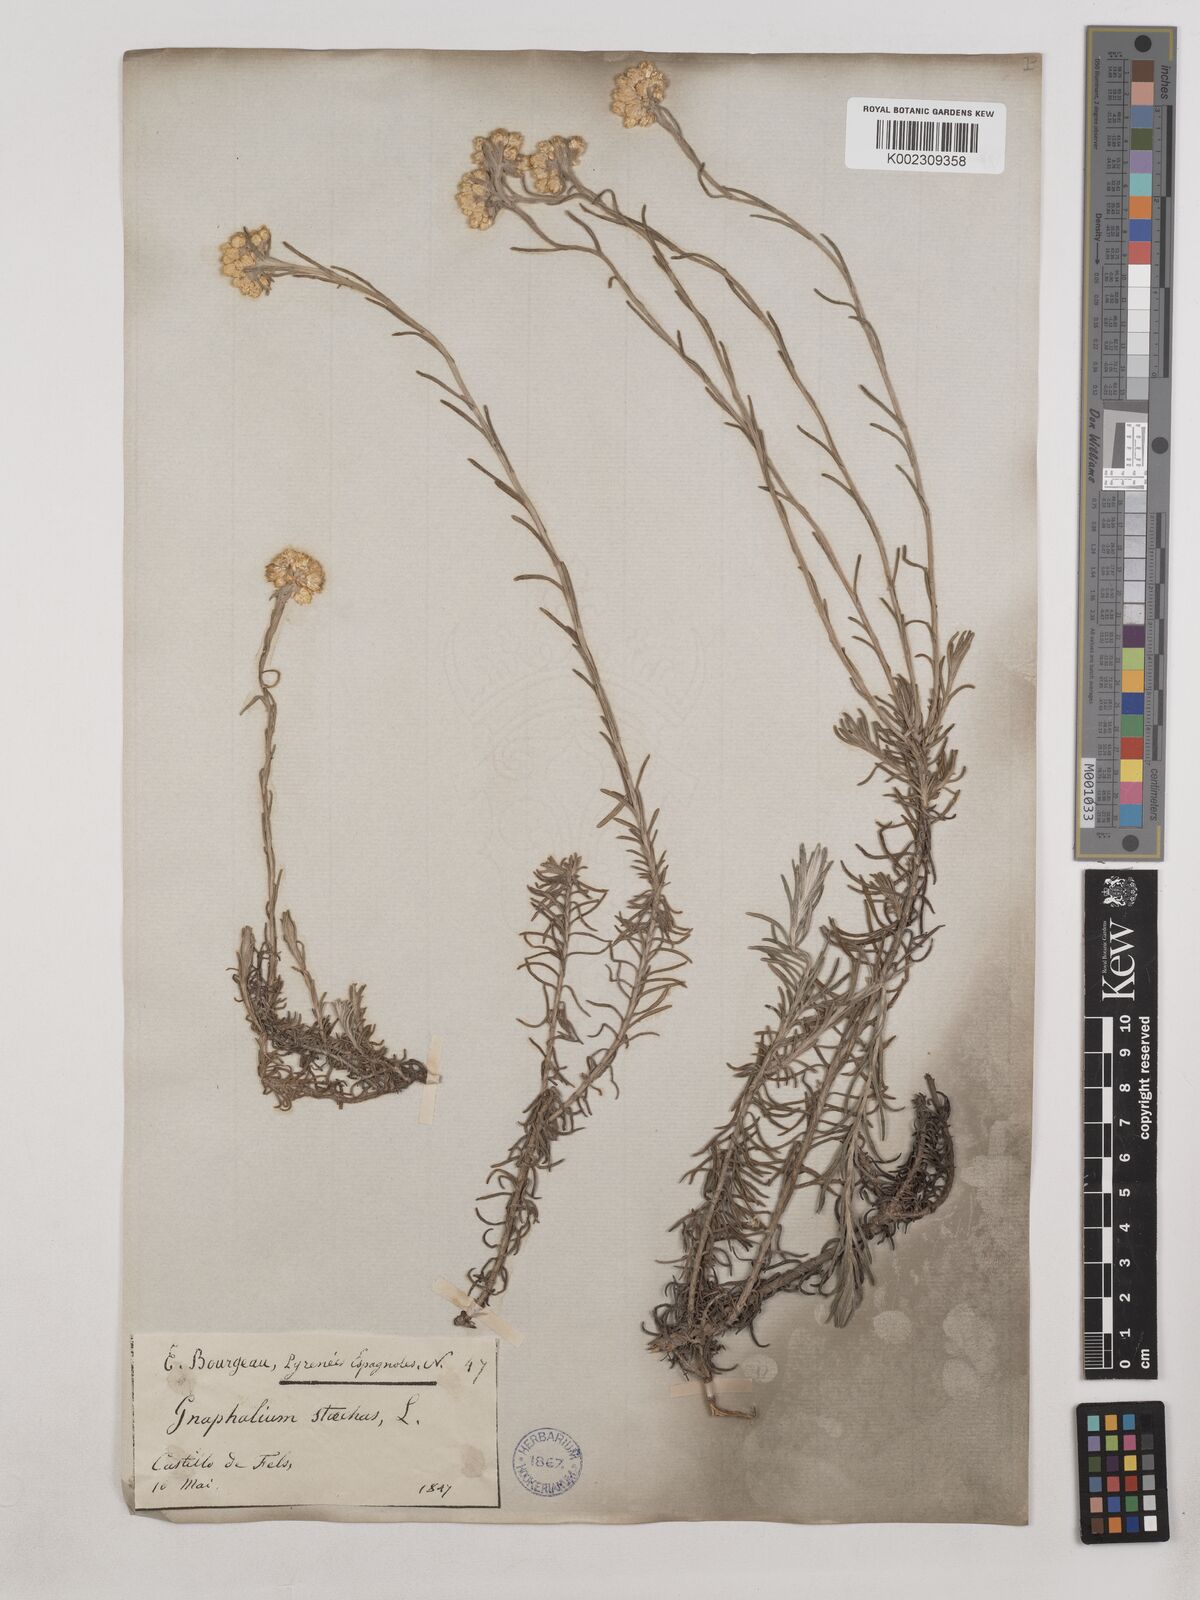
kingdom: Plantae
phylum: Tracheophyta
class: Magnoliopsida
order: Asterales
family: Asteraceae
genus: Helichrysum
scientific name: Helichrysum
